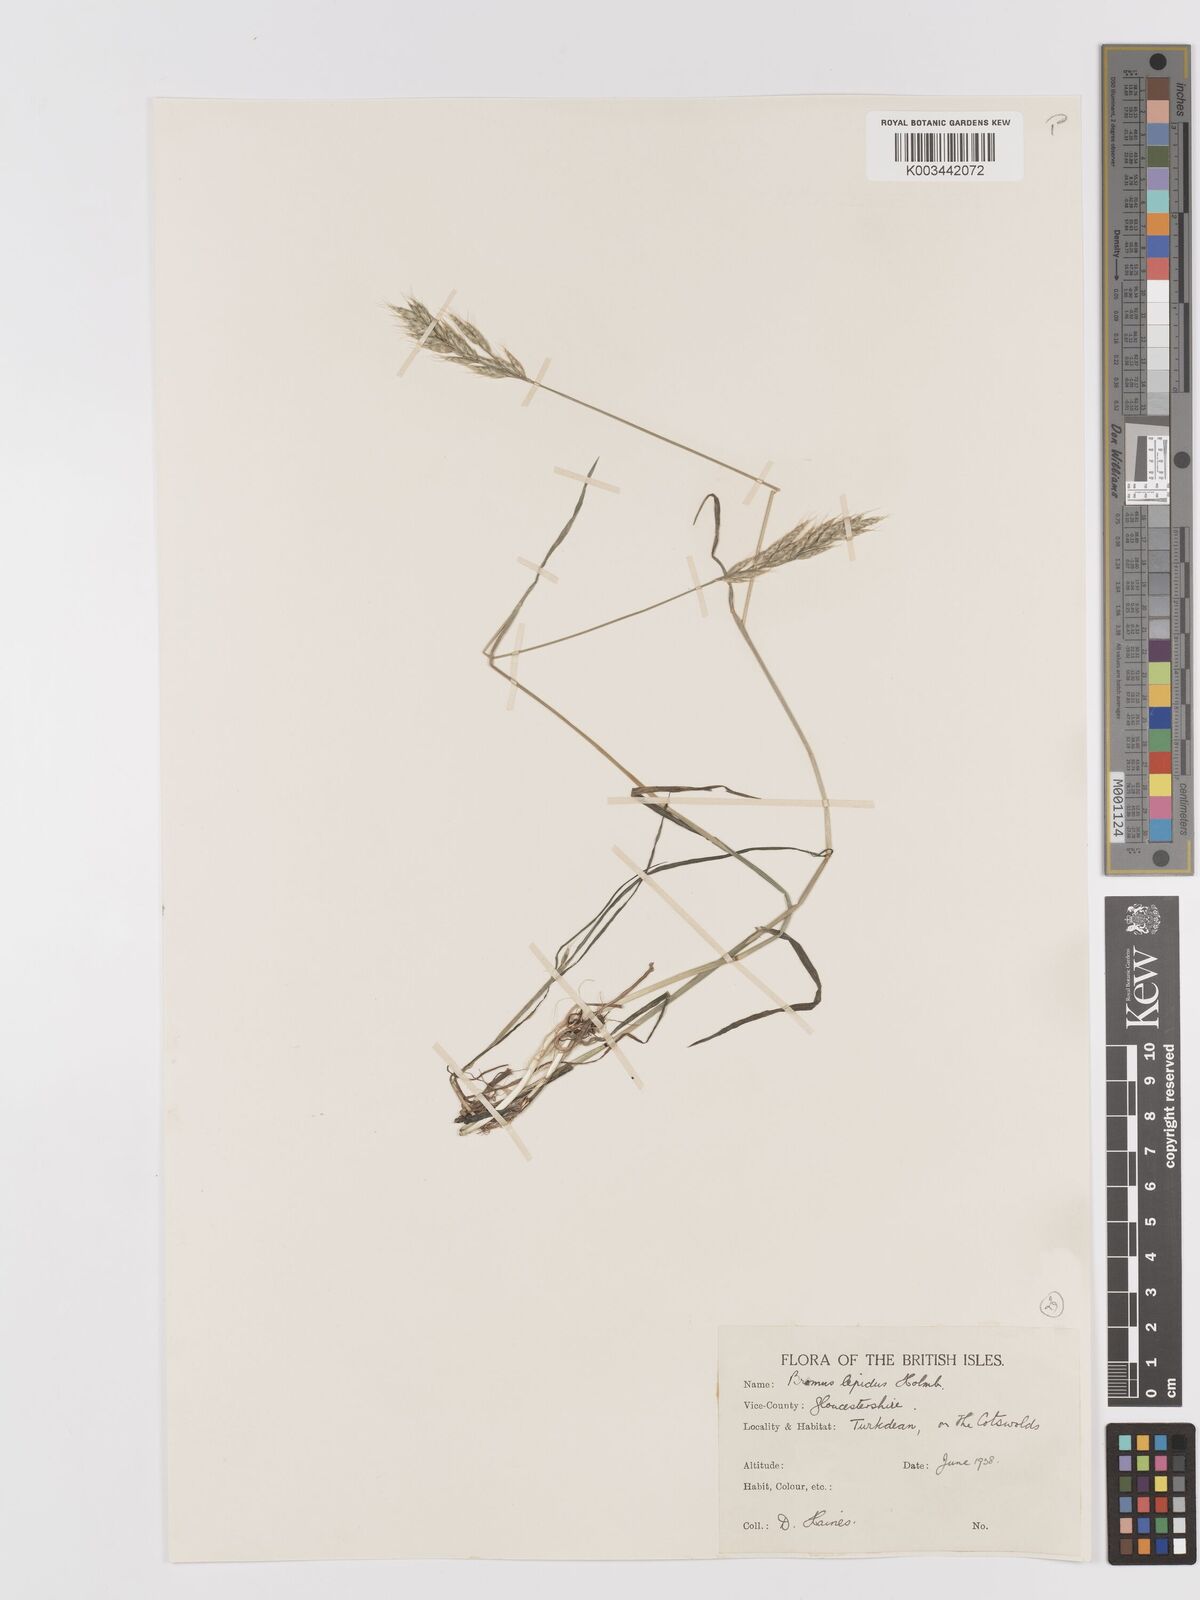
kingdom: Plantae
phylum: Tracheophyta
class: Liliopsida
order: Poales
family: Poaceae
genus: Bromus
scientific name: Bromus lepidus
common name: Slender soft-brome
